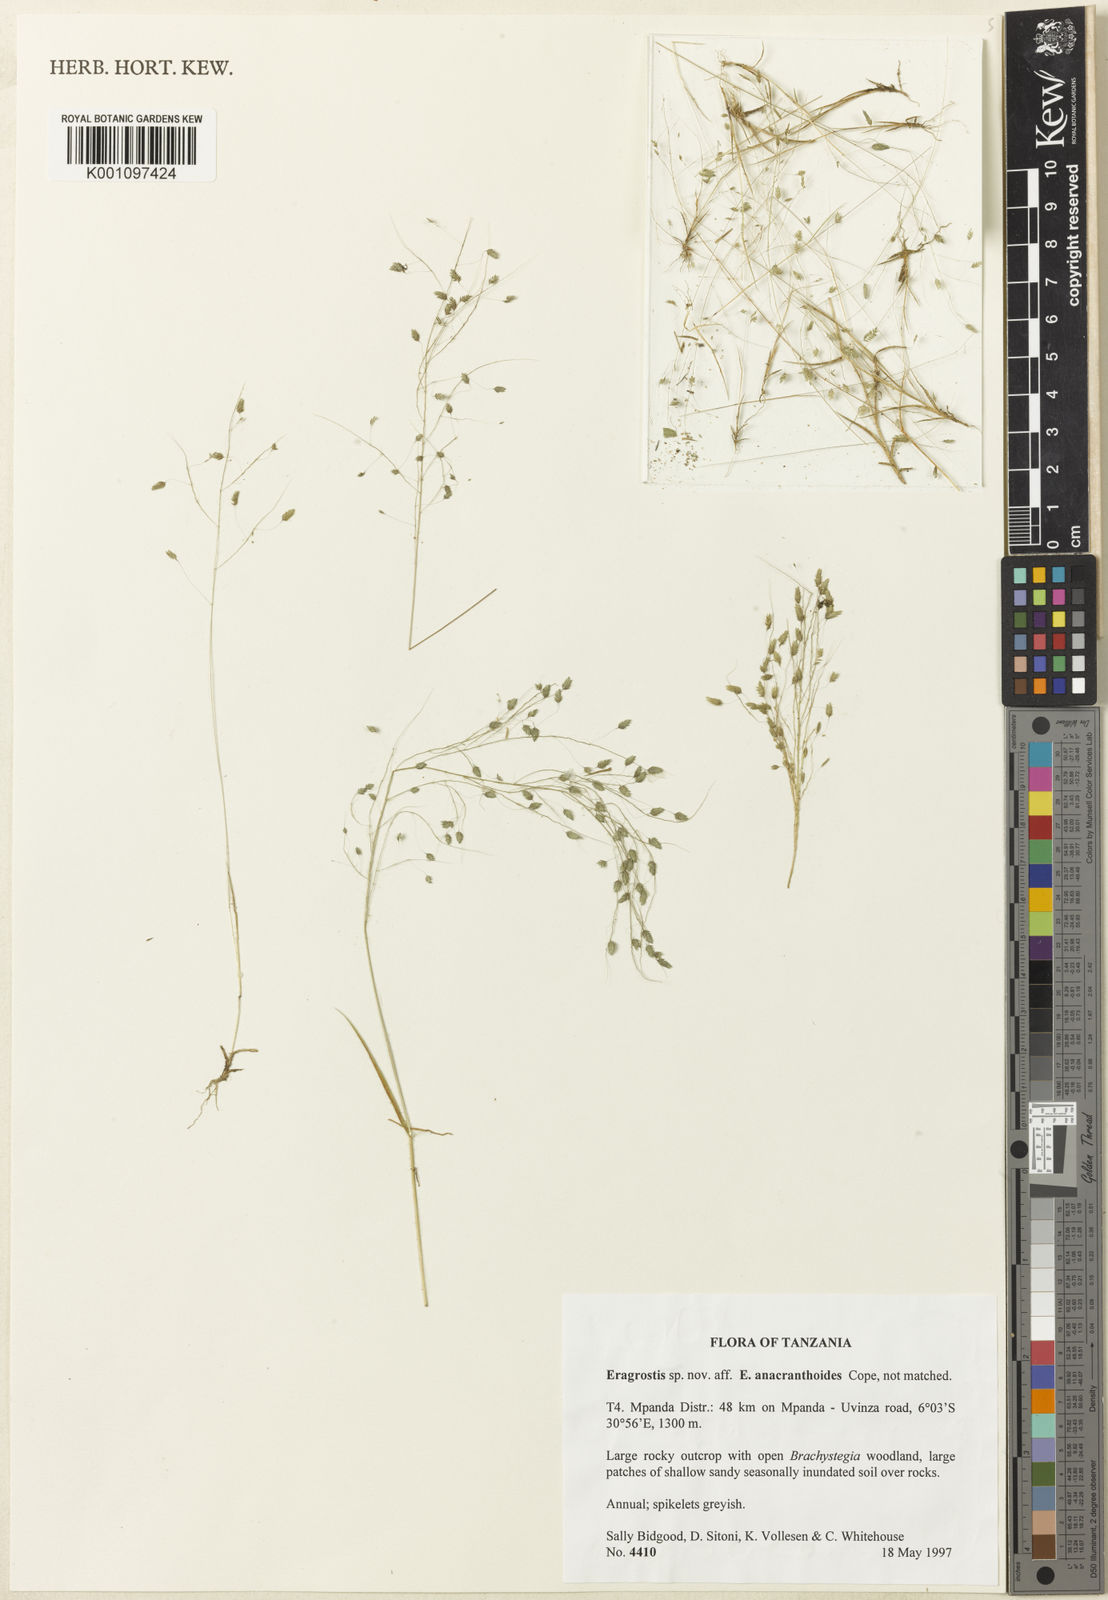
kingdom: Plantae
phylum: Tracheophyta
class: Liliopsida
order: Poales
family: Poaceae
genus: Eragrostis
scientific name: Eragrostis poculiformis
